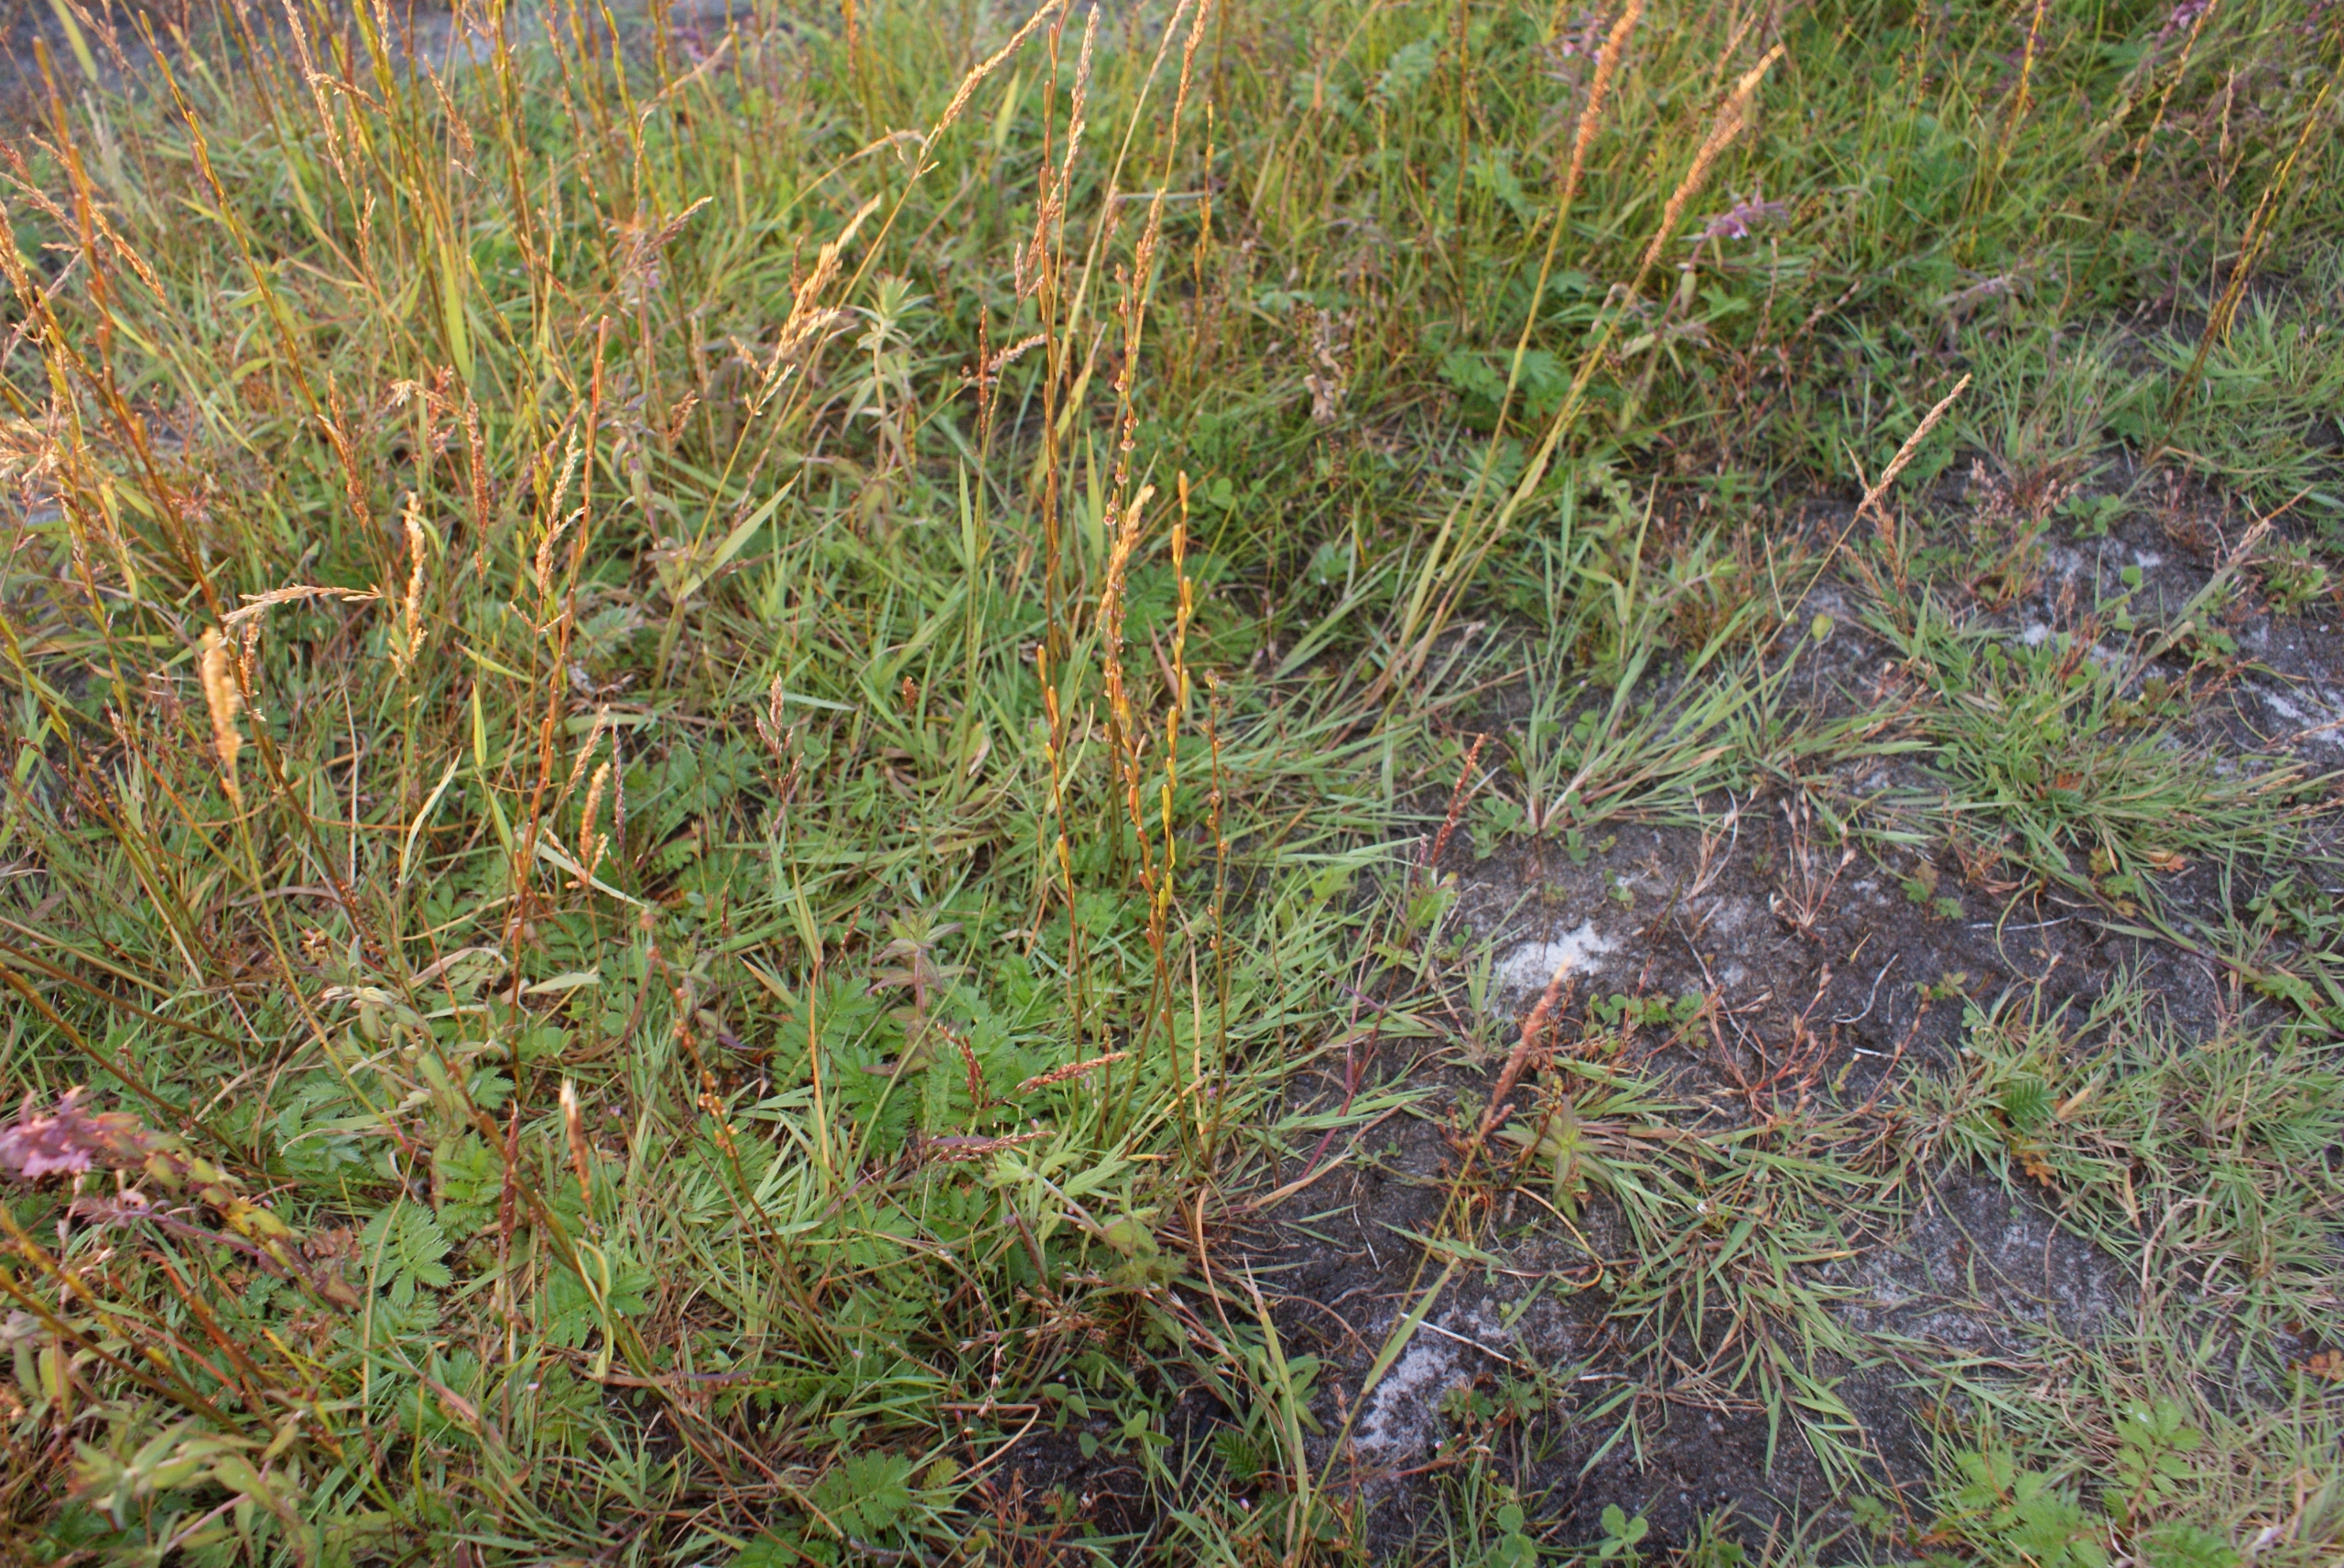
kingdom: Plantae
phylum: Tracheophyta
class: Liliopsida
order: Alismatales
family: Juncaginaceae
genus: Triglochin
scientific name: Triglochin palustris
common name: Kær-trehage
